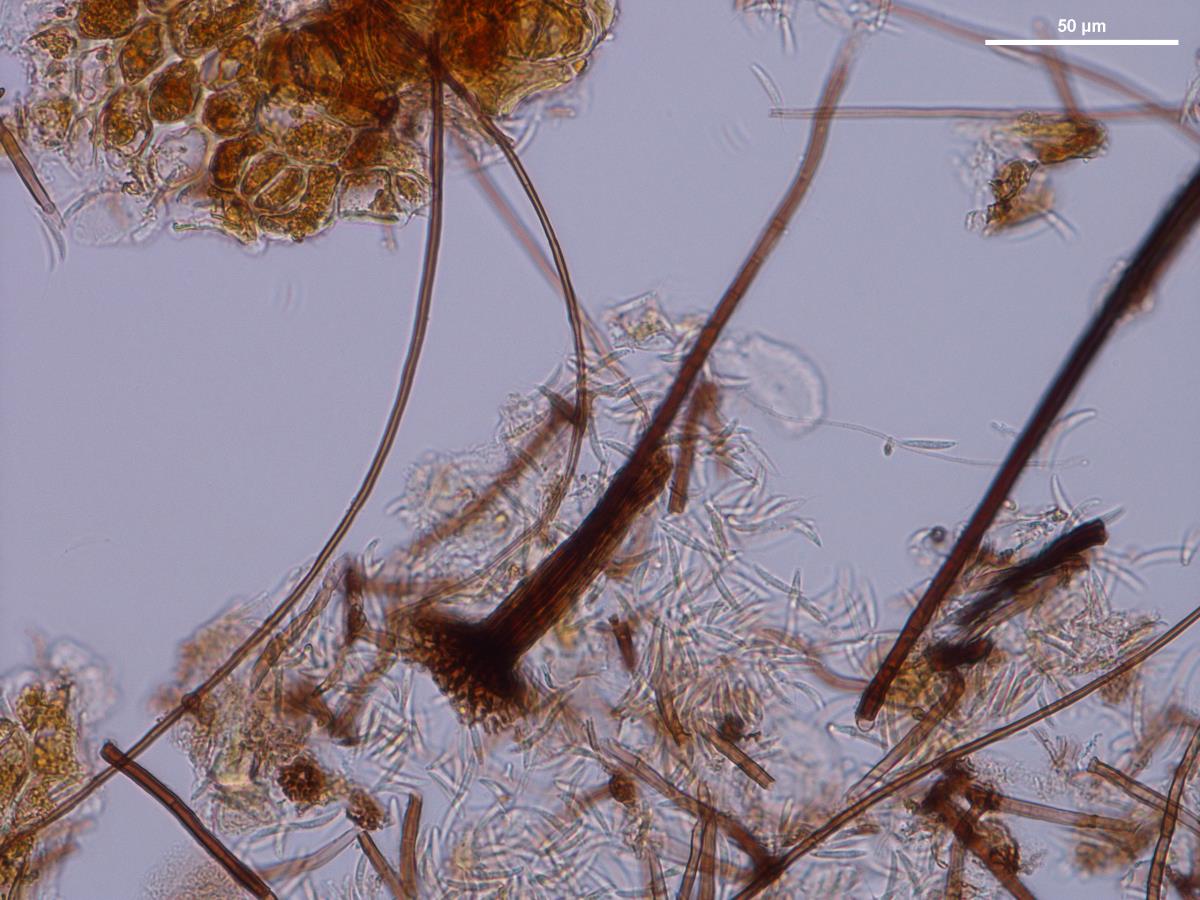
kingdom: Fungi
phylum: Ascomycota
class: Sordariomycetes
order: Chaetosphaeriales
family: Chaetosphaeriaceae
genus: Dictyochaeta
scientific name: Dictyochaeta australiensis
